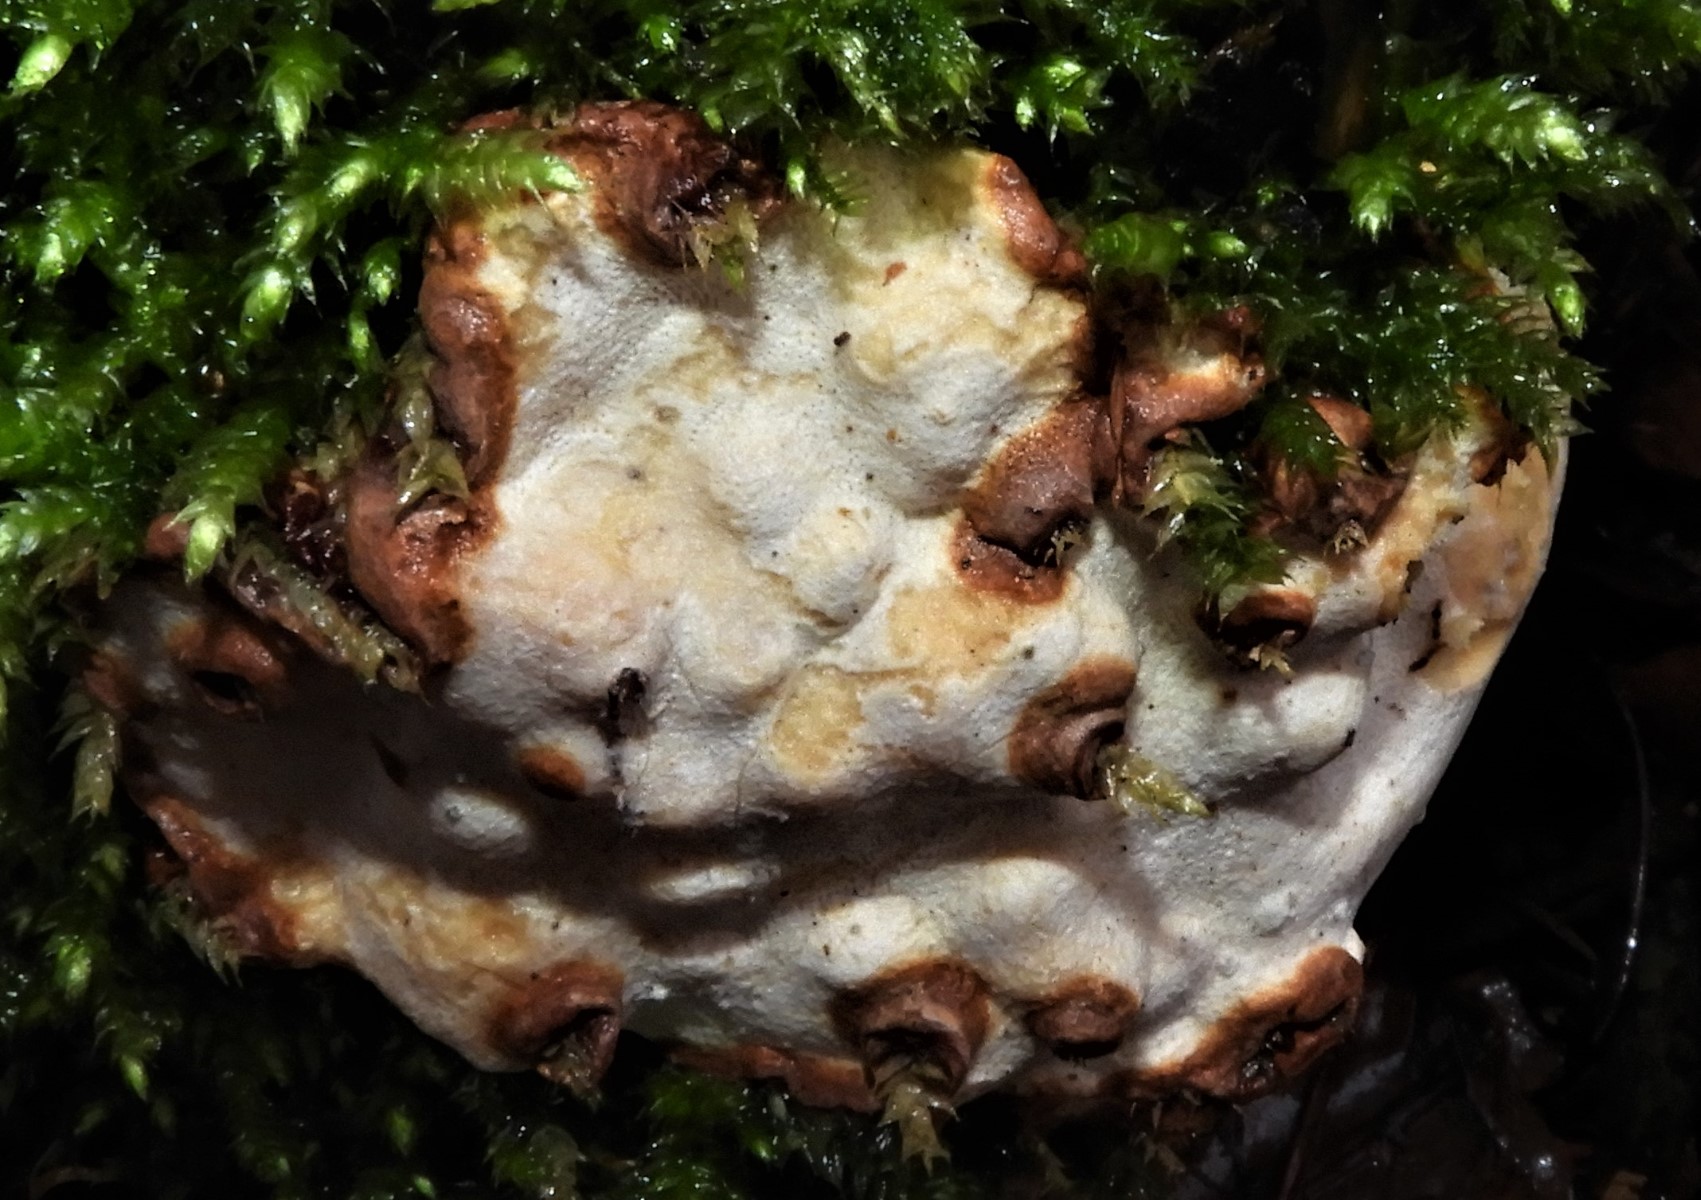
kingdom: Fungi
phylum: Basidiomycota
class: Agaricomycetes
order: Russulales
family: Bondarzewiaceae
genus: Heterobasidion
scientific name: Heterobasidion annosum
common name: almindelig rodfordærver
